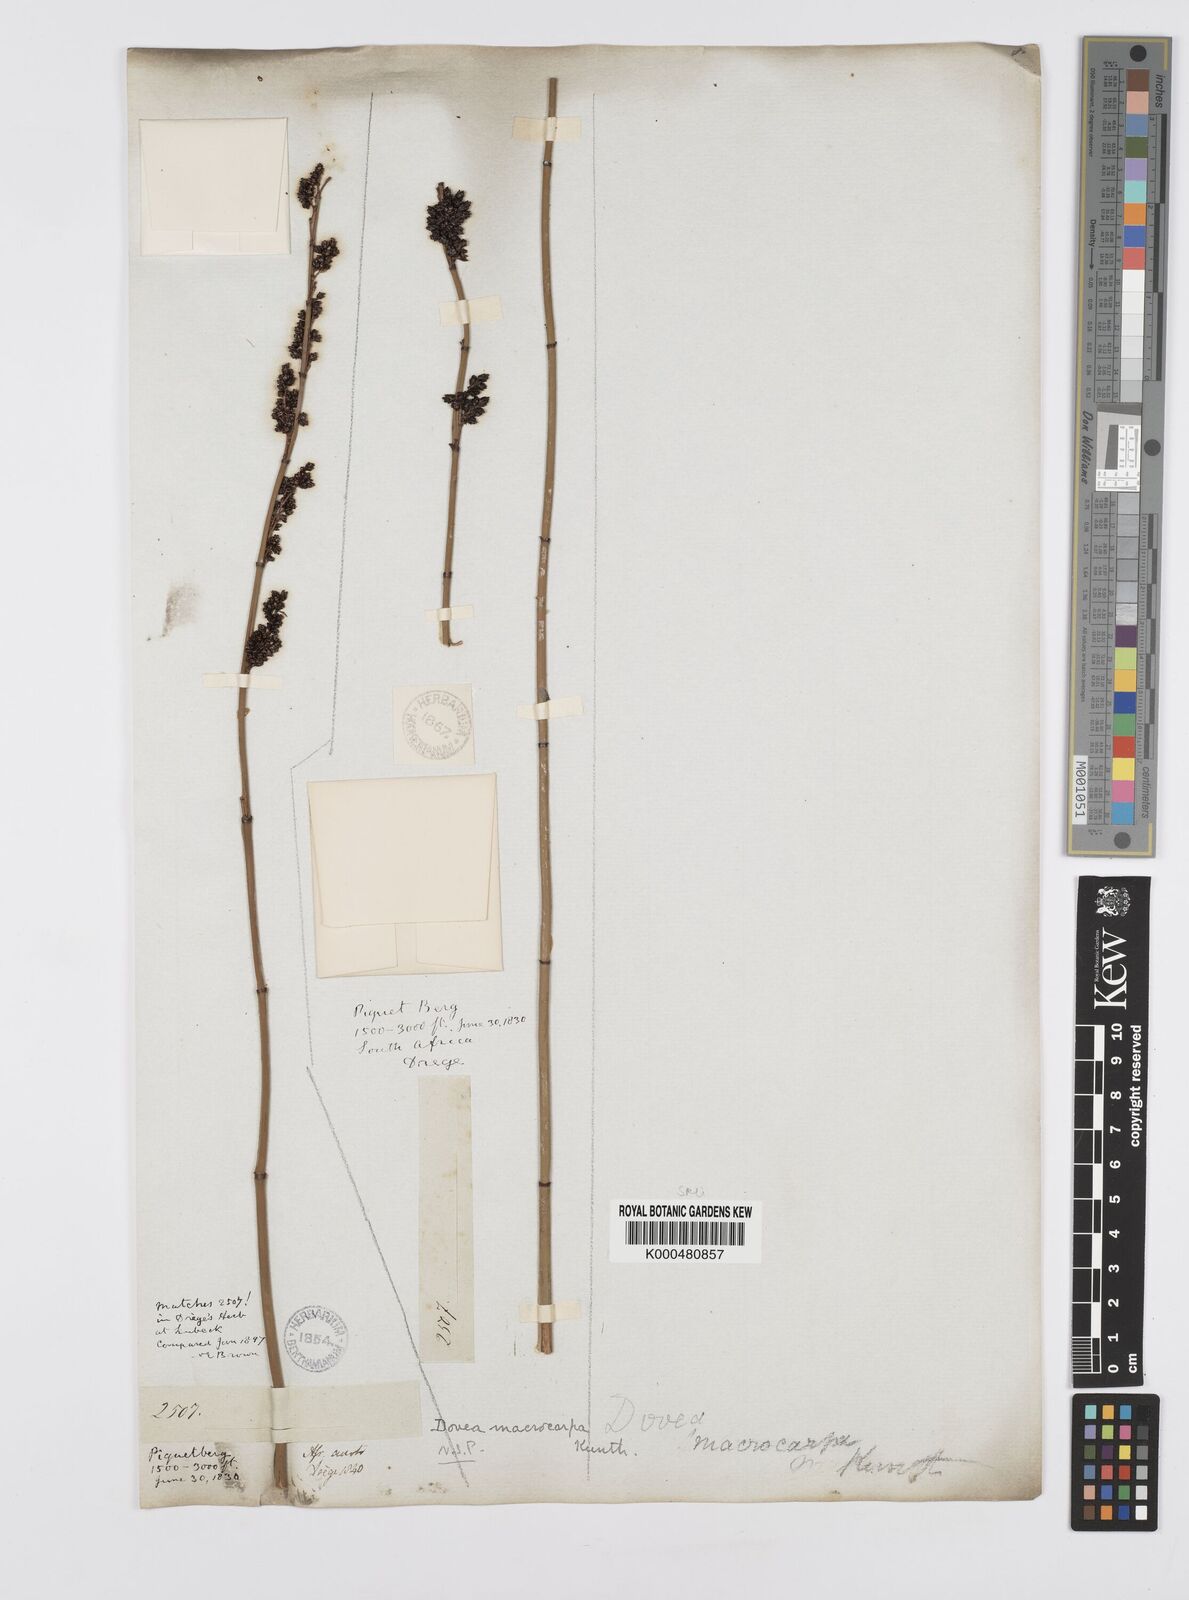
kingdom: Plantae
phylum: Tracheophyta
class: Liliopsida
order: Poales
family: Restionaceae
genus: Elegia
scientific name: Elegia macrocarpa
